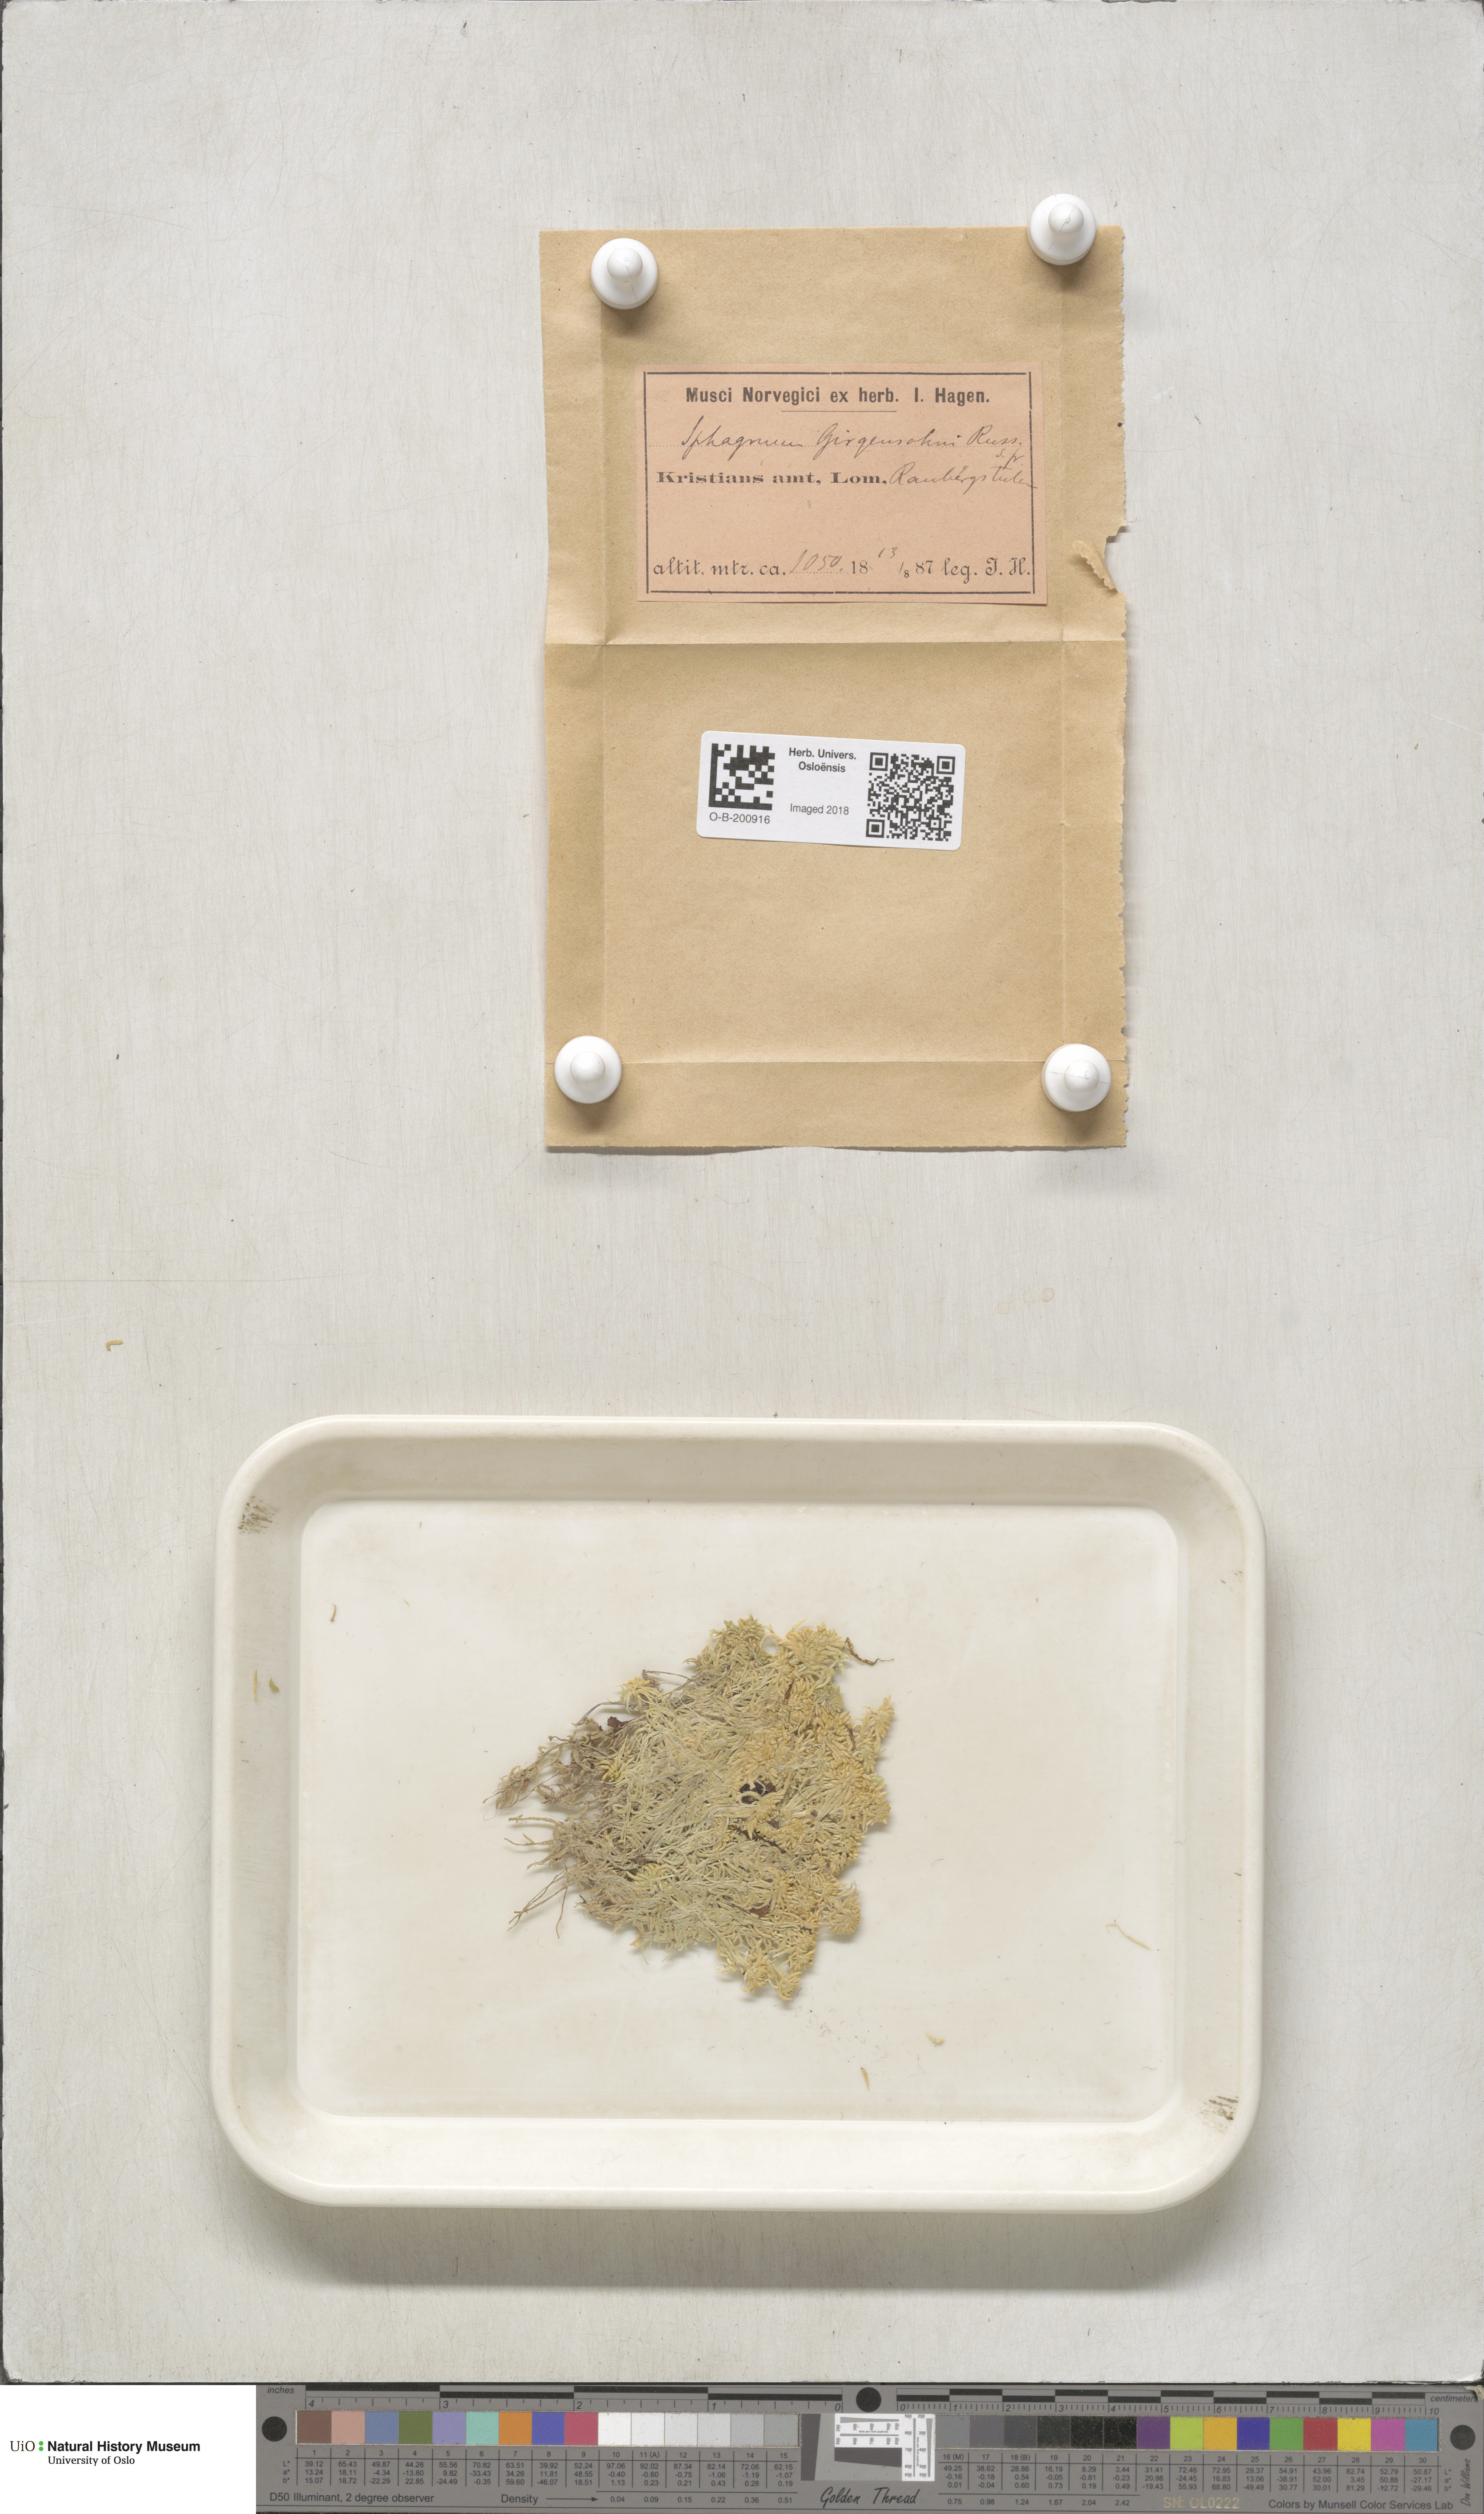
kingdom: Plantae
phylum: Bryophyta
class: Sphagnopsida
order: Sphagnales
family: Sphagnaceae
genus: Sphagnum
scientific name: Sphagnum girgensohnii
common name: Girgensohn's peat moss
